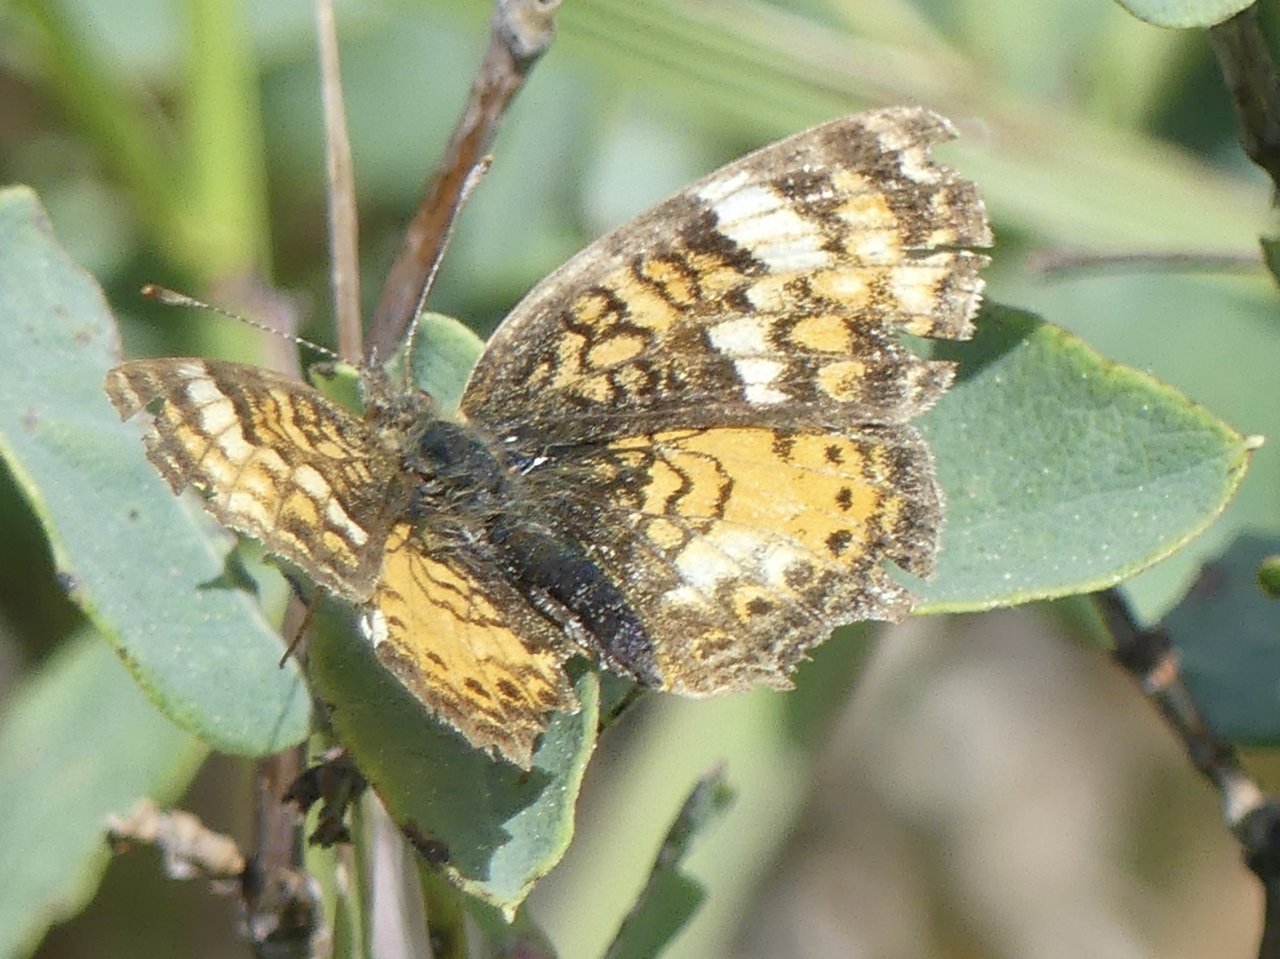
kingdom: Animalia
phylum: Arthropoda
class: Insecta
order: Lepidoptera
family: Nymphalidae
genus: Phyciodes
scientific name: Phyciodes tharos
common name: Northern Crescent
